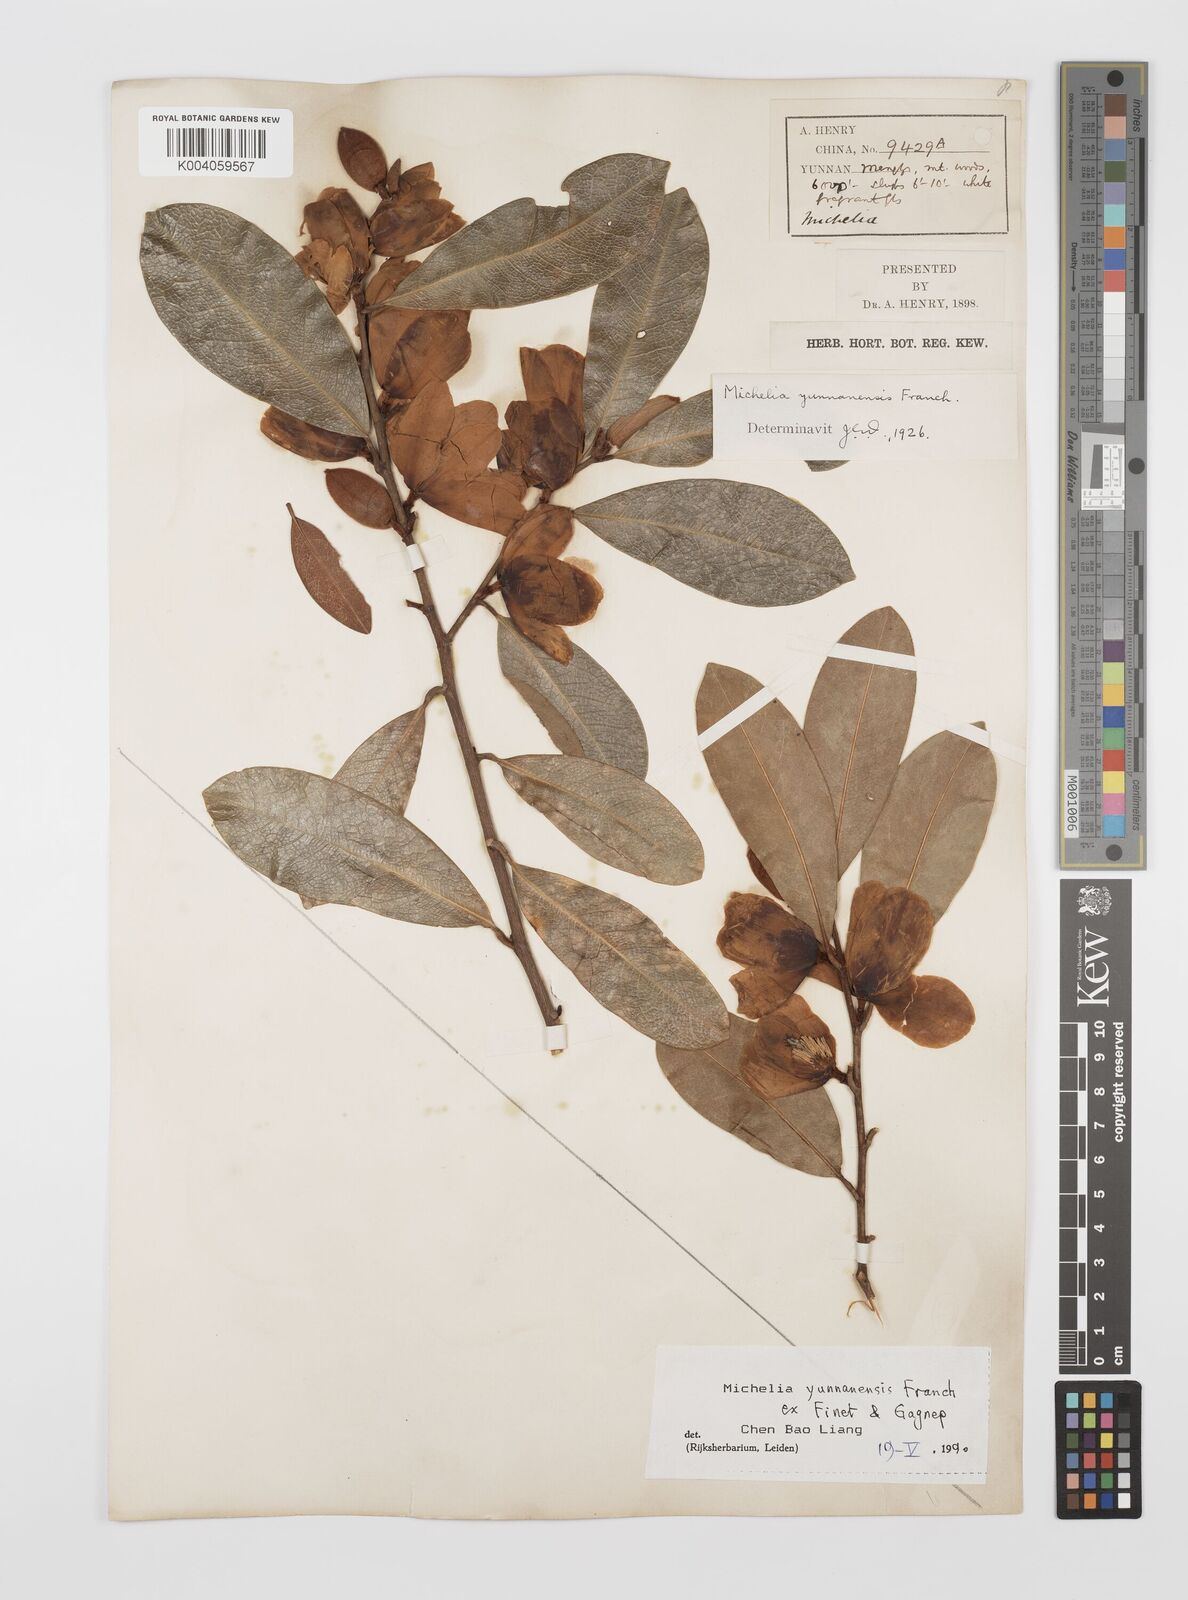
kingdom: Plantae
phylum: Tracheophyta
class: Magnoliopsida
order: Magnoliales
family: Magnoliaceae
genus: Magnolia
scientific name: Magnolia laevifolia
